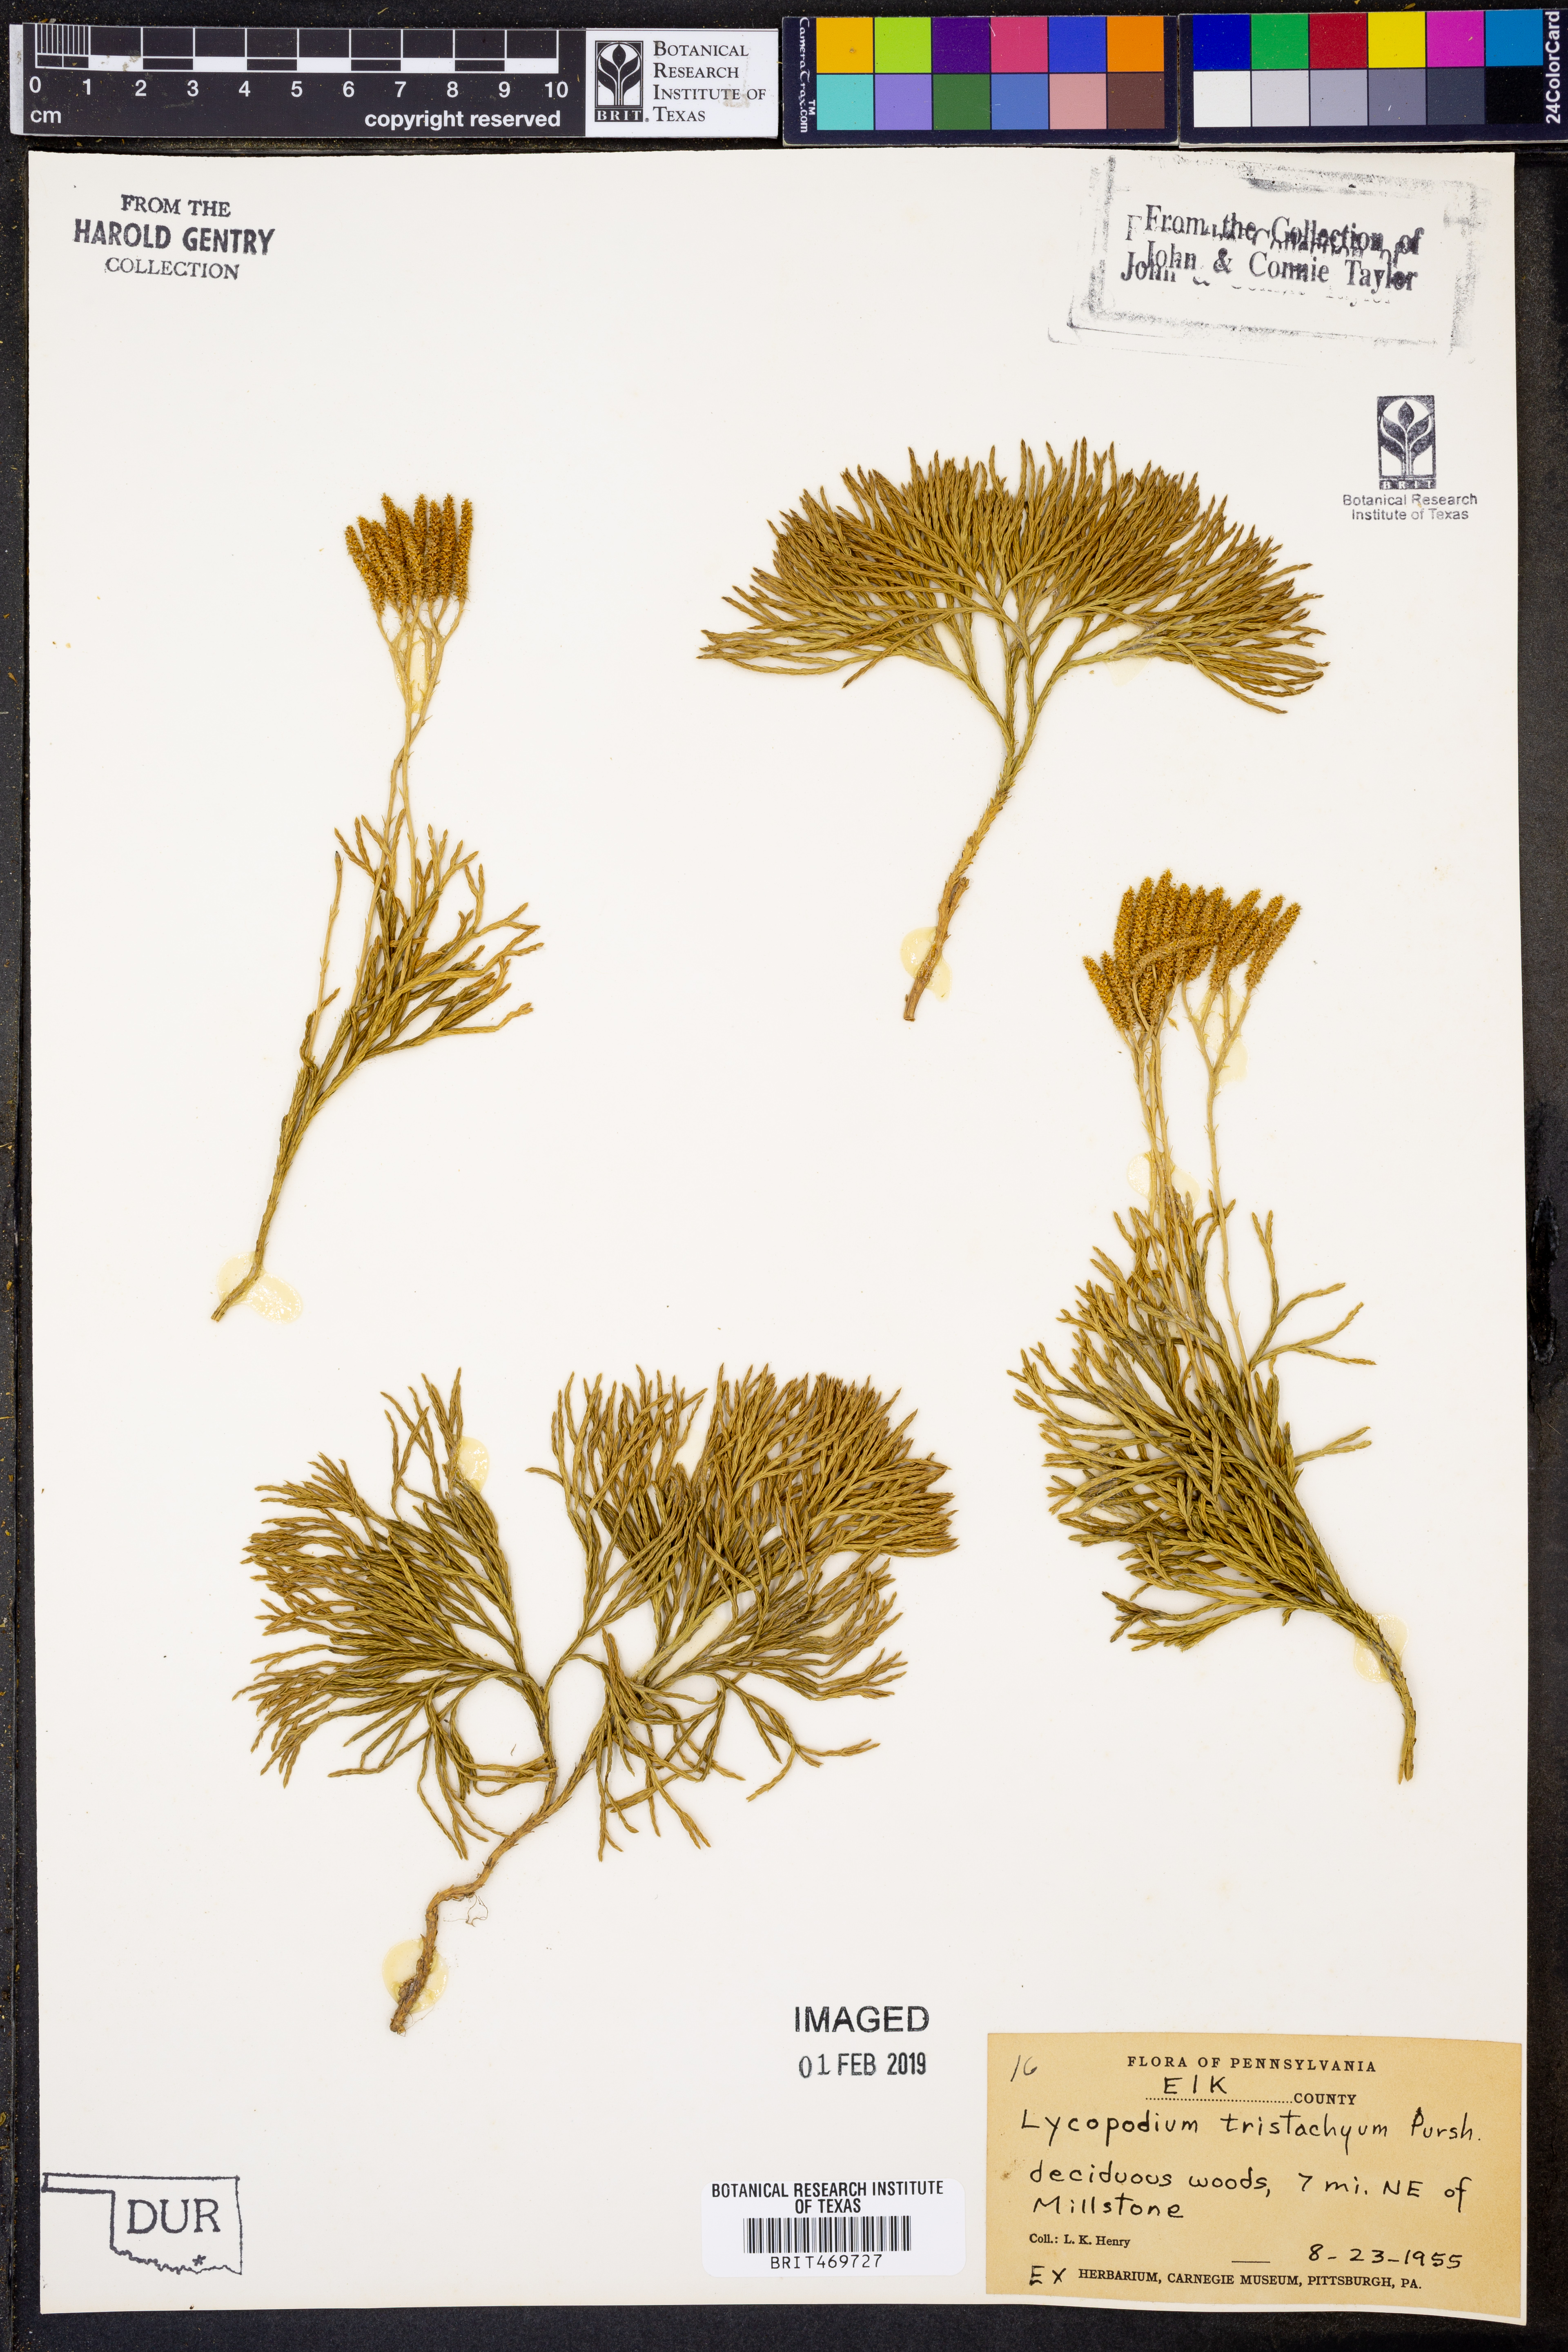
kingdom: Plantae
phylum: Tracheophyta
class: Lycopodiopsida
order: Lycopodiales
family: Lycopodiaceae
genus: Diphasiastrum
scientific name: Diphasiastrum tristachyum
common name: Blue ground-cedar
